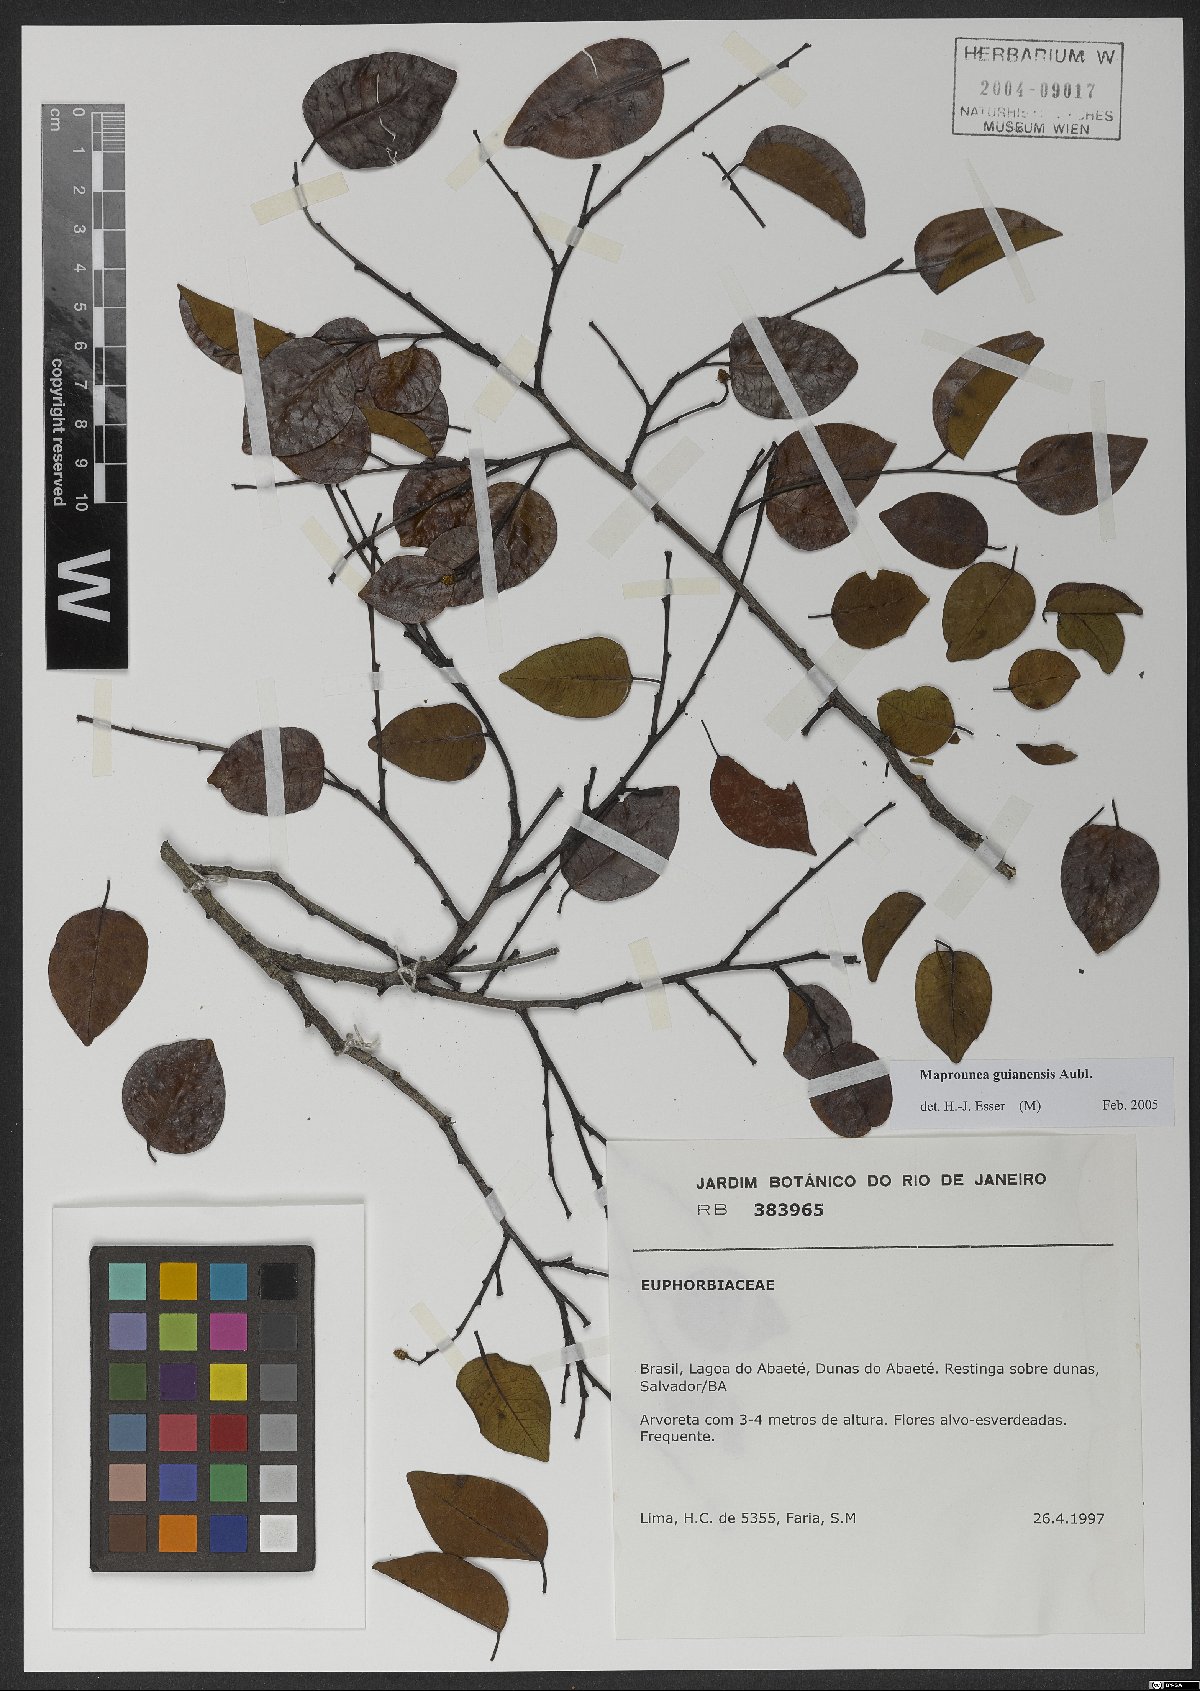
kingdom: Plantae
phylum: Tracheophyta
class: Magnoliopsida
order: Malpighiales
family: Euphorbiaceae
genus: Maprounea
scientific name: Maprounea guianensis
